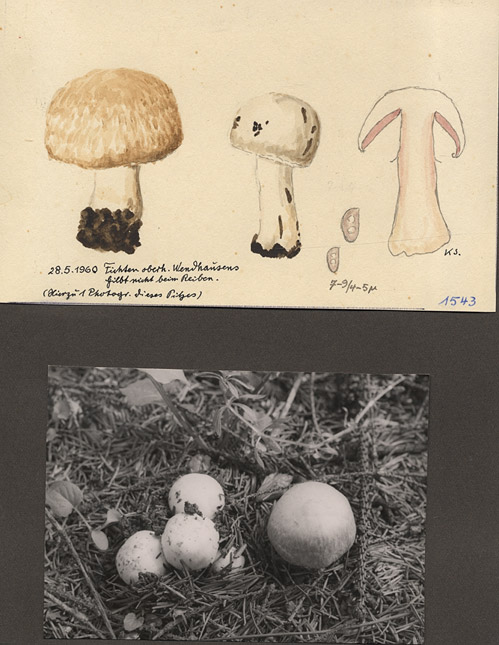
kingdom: Plantae
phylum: Tracheophyta
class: Pinopsida
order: Pinales
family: Pinaceae
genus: Picea
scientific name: Picea
